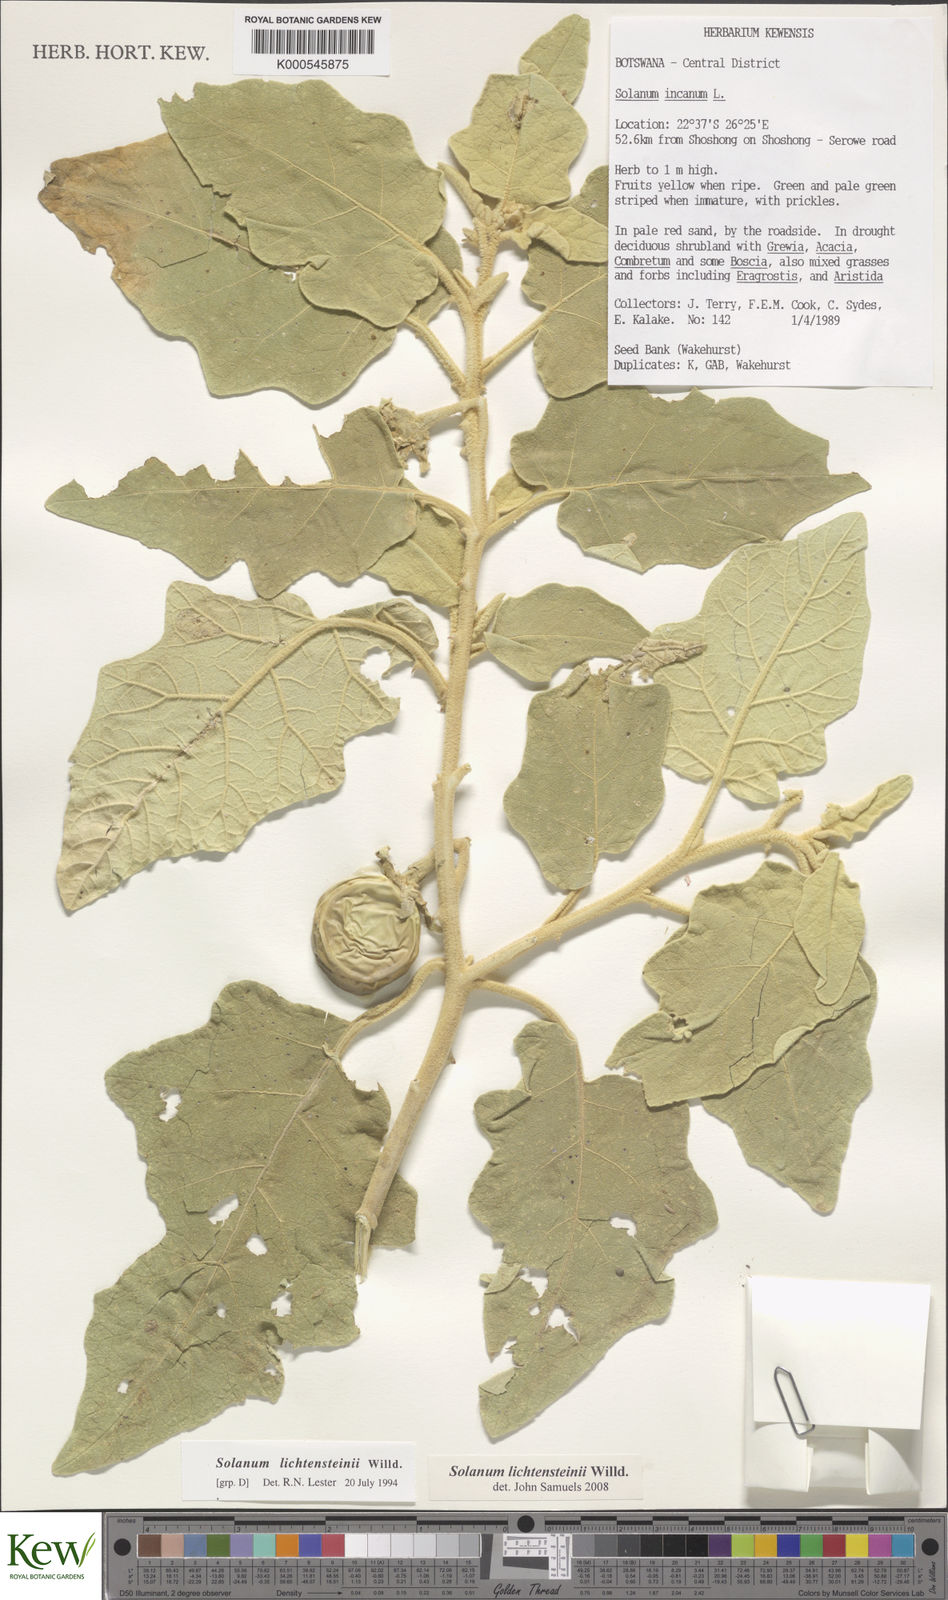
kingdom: Plantae
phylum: Tracheophyta
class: Magnoliopsida
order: Solanales
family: Solanaceae
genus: Solanum
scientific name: Solanum lichtensteinii
